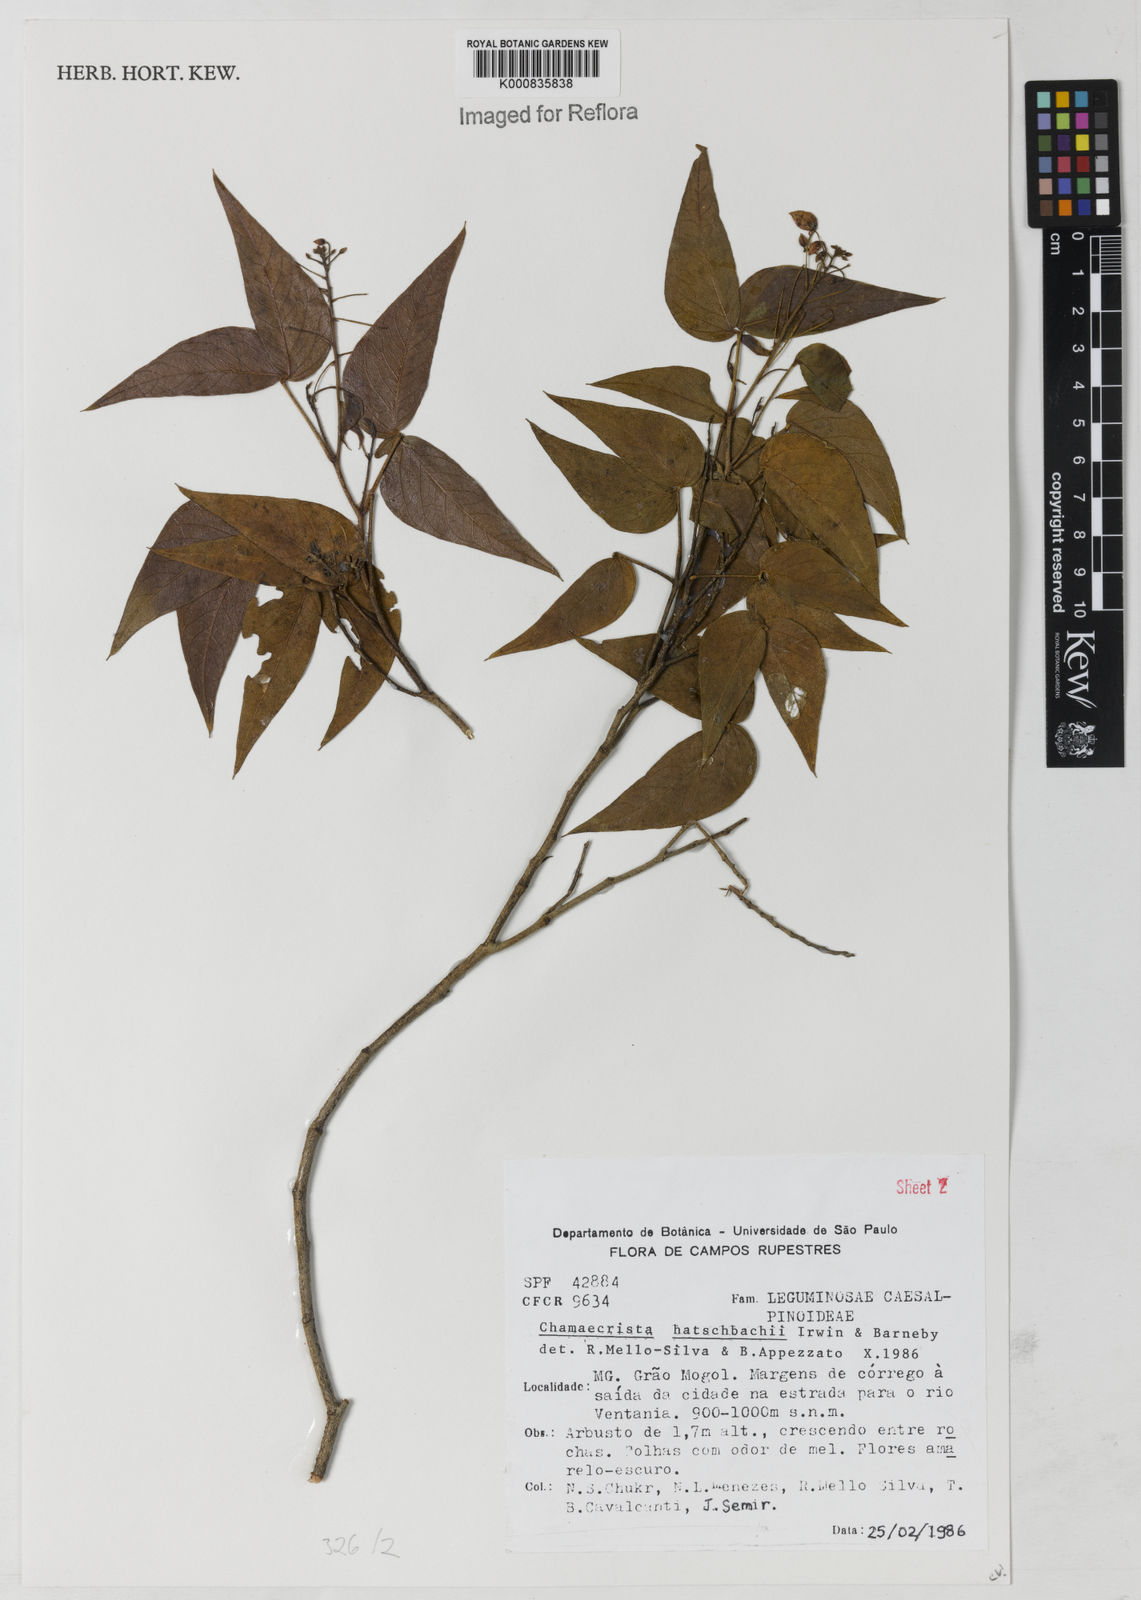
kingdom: Plantae
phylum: Tracheophyta
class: Magnoliopsida
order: Fabales
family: Fabaceae
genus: Chamaecrista
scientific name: Chamaecrista hatschbachii
